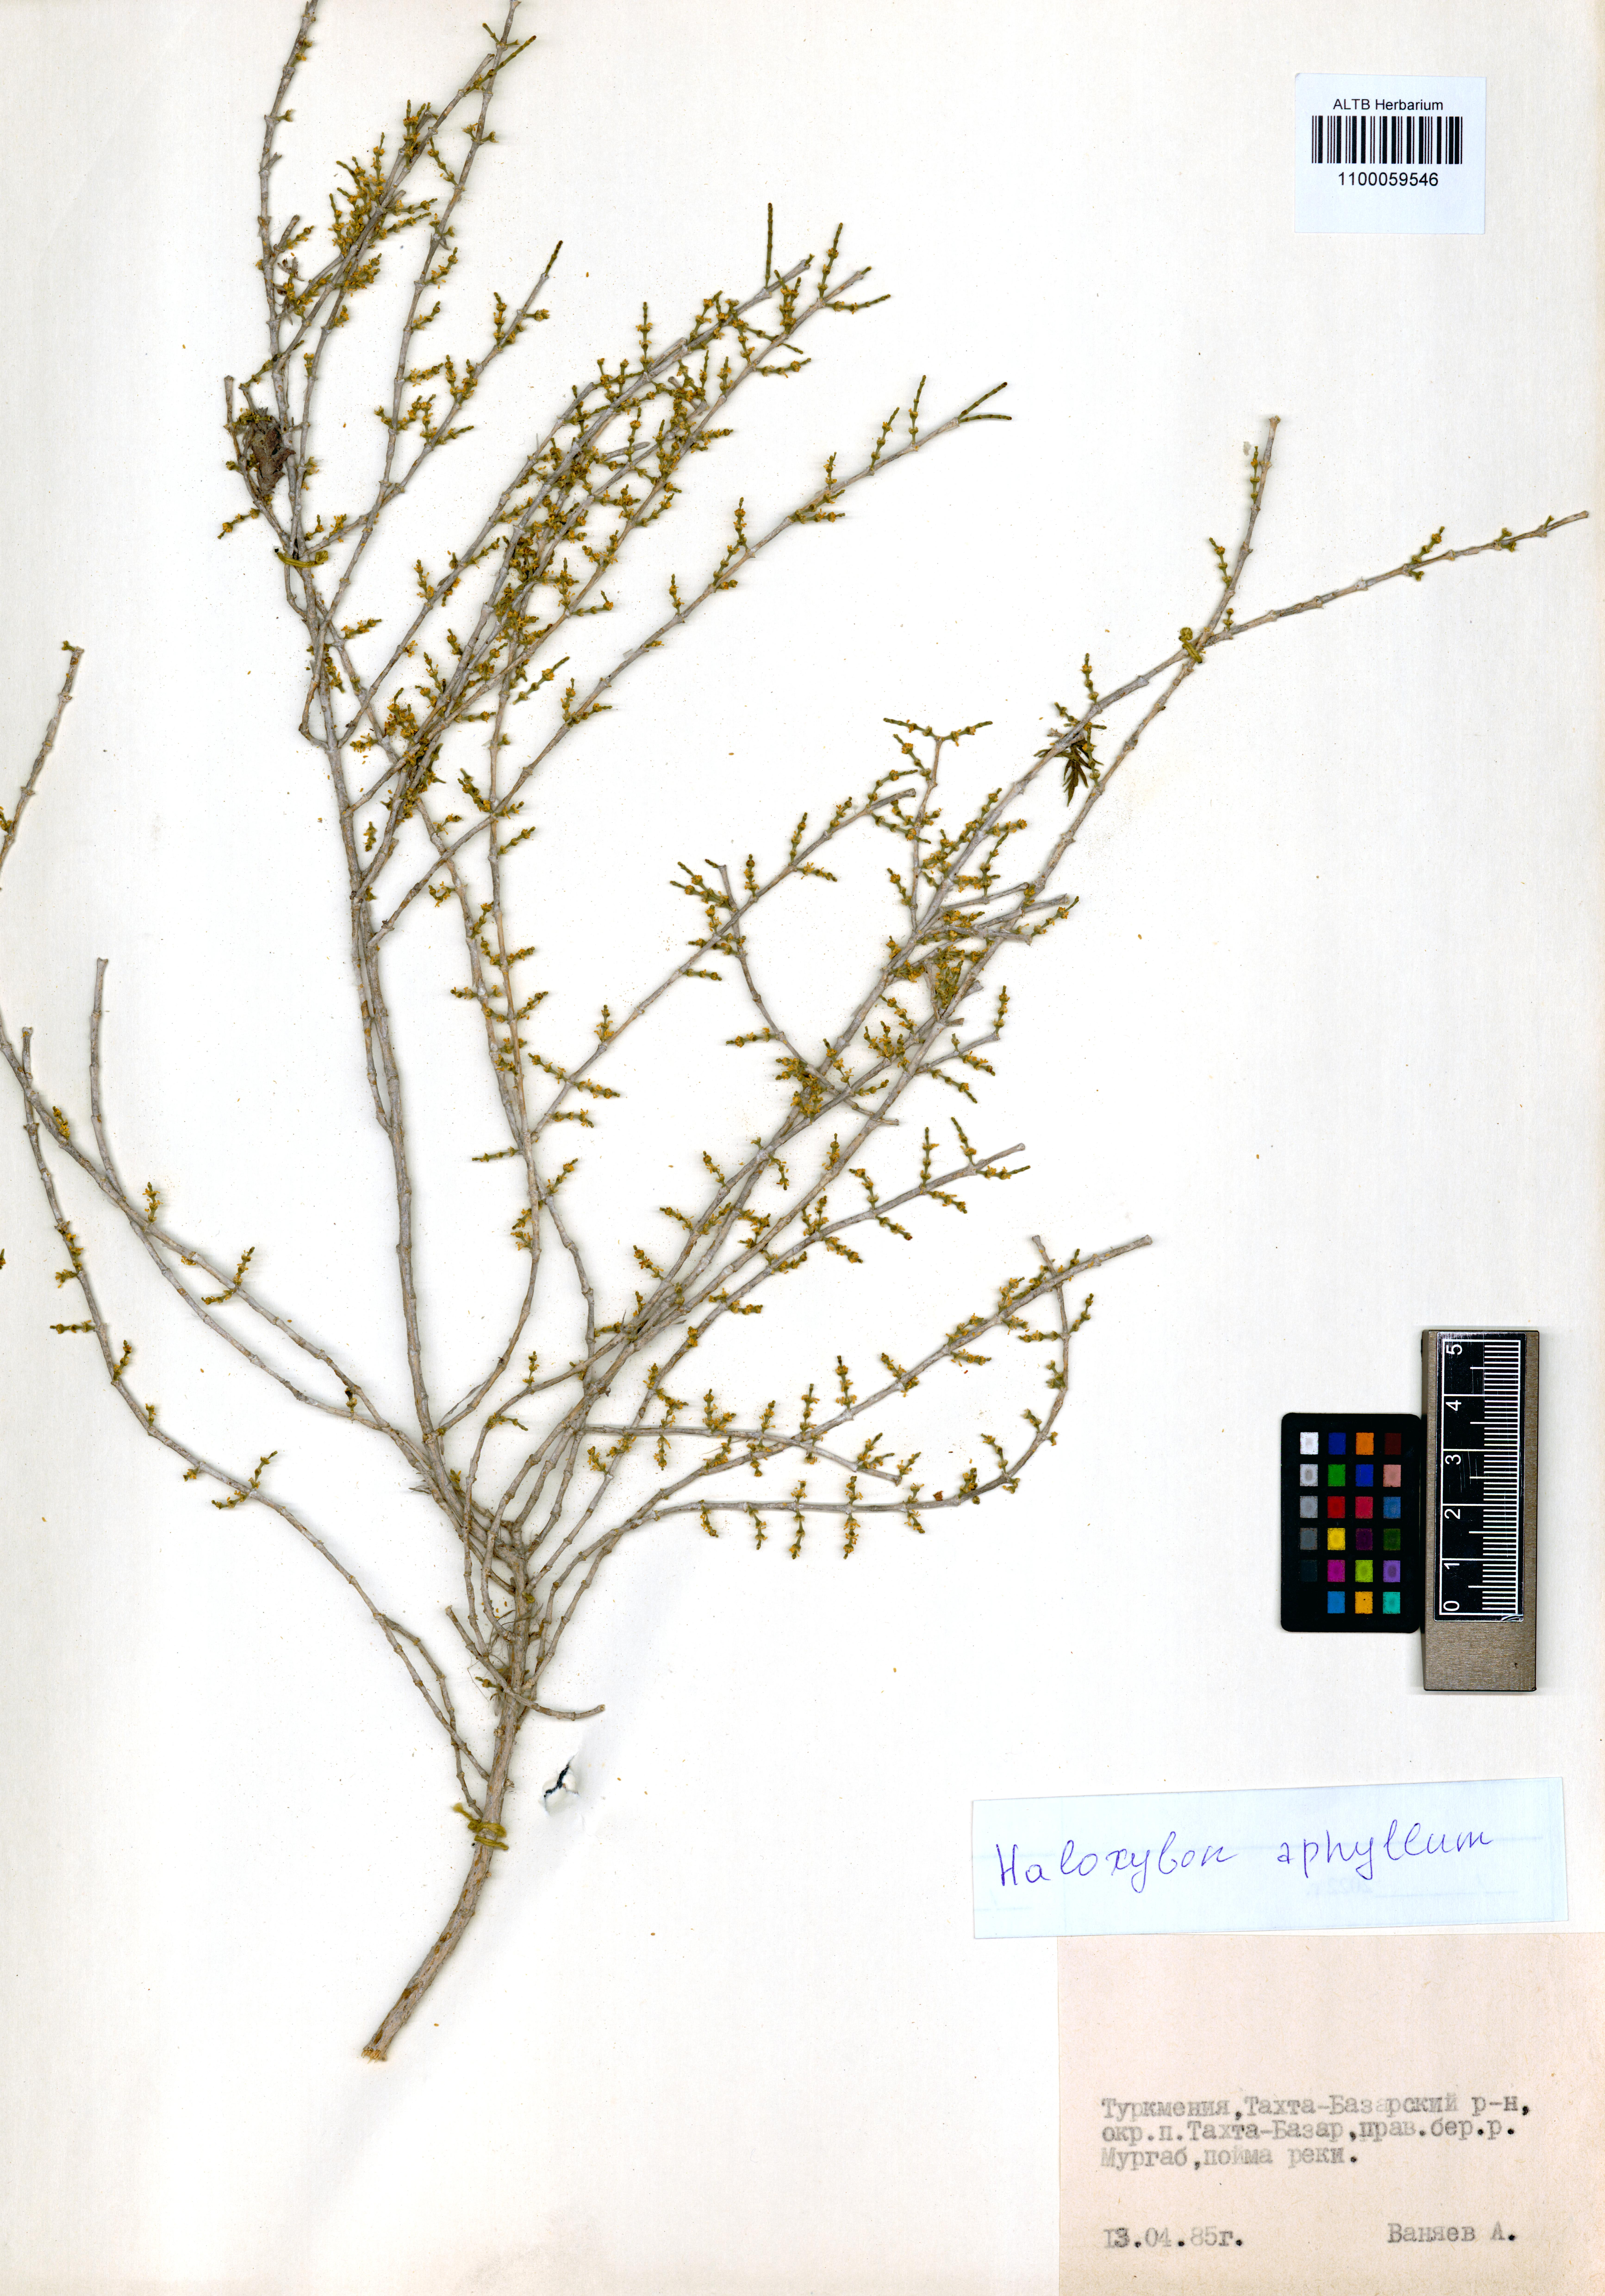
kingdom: Plantae
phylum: Tracheophyta
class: Magnoliopsida
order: Caryophyllales
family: Amaranthaceae
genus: Haloxylon
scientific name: Haloxylon ammodendron
